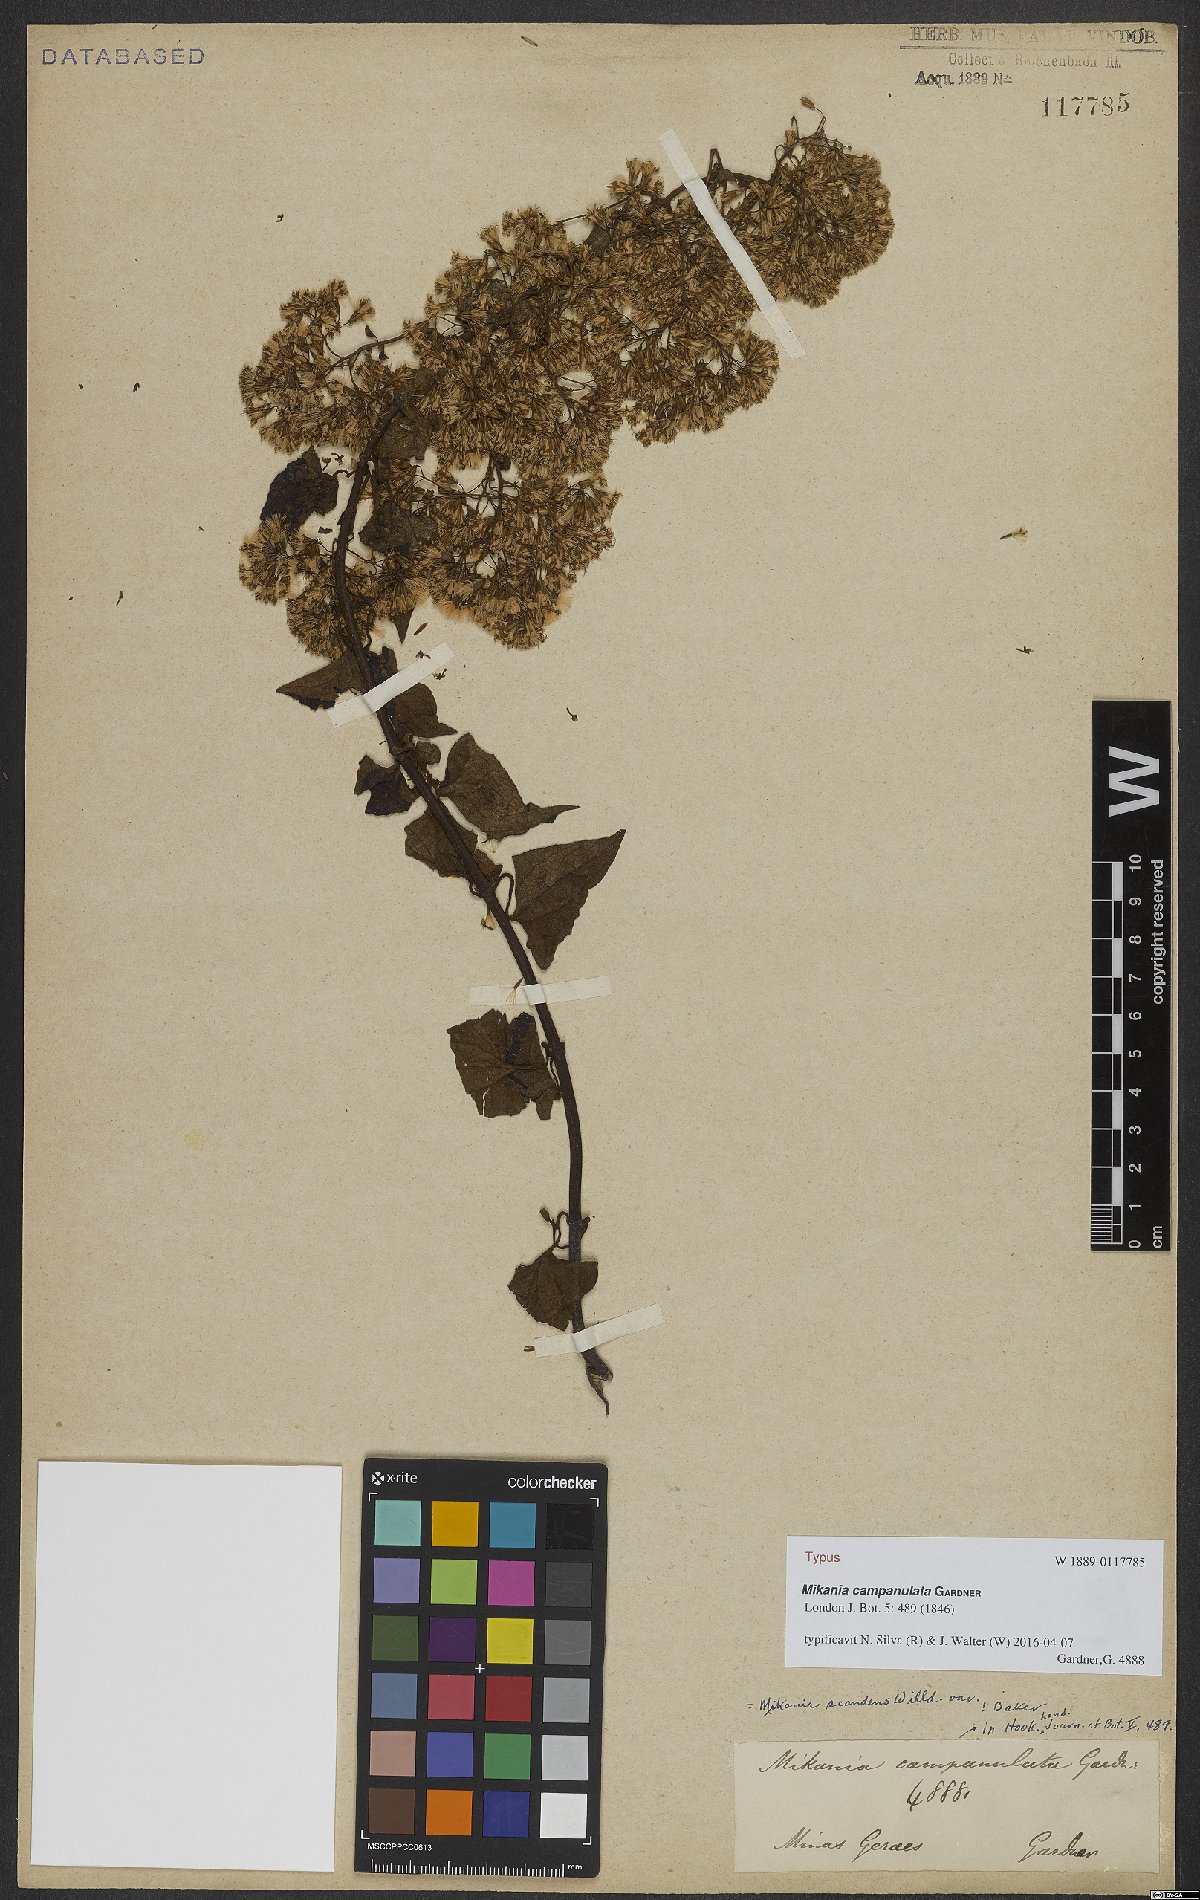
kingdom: Plantae
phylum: Tracheophyta
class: Magnoliopsida
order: Asterales
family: Asteraceae
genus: Mikania
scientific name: Mikania campanulata
